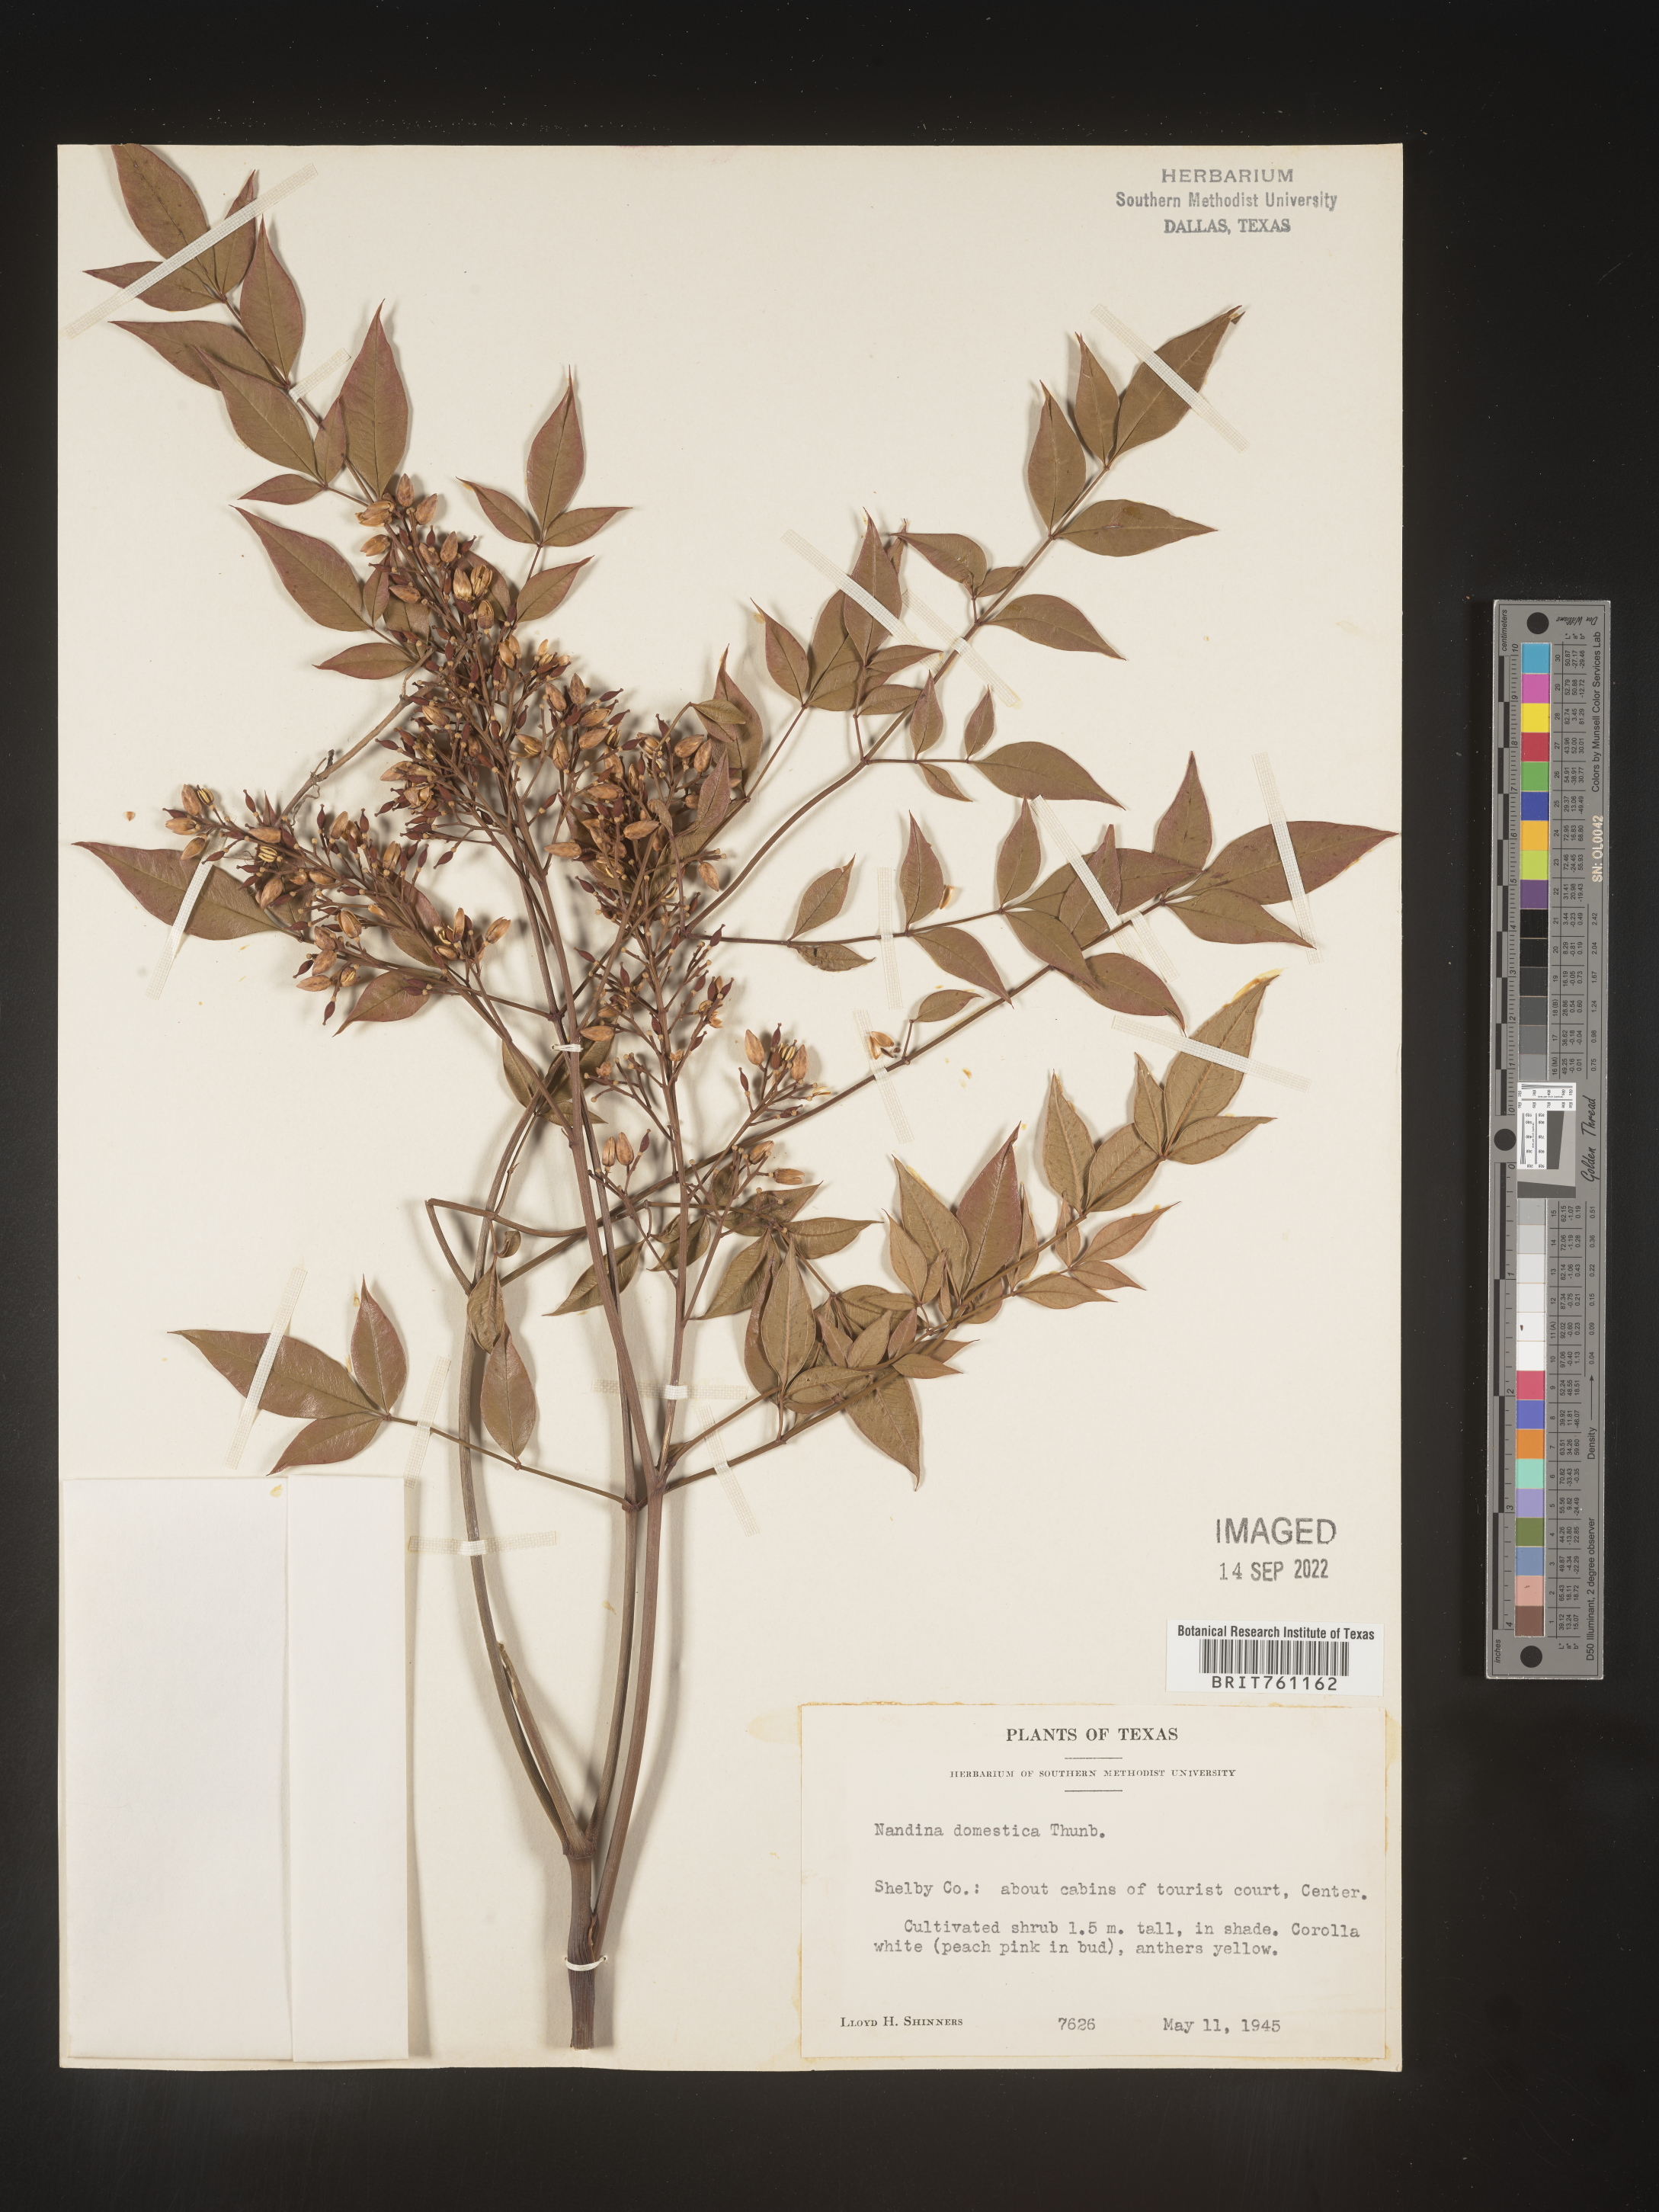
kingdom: Plantae
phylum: Tracheophyta
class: Magnoliopsida
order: Ranunculales
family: Berberidaceae
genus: Nandina
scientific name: Nandina
